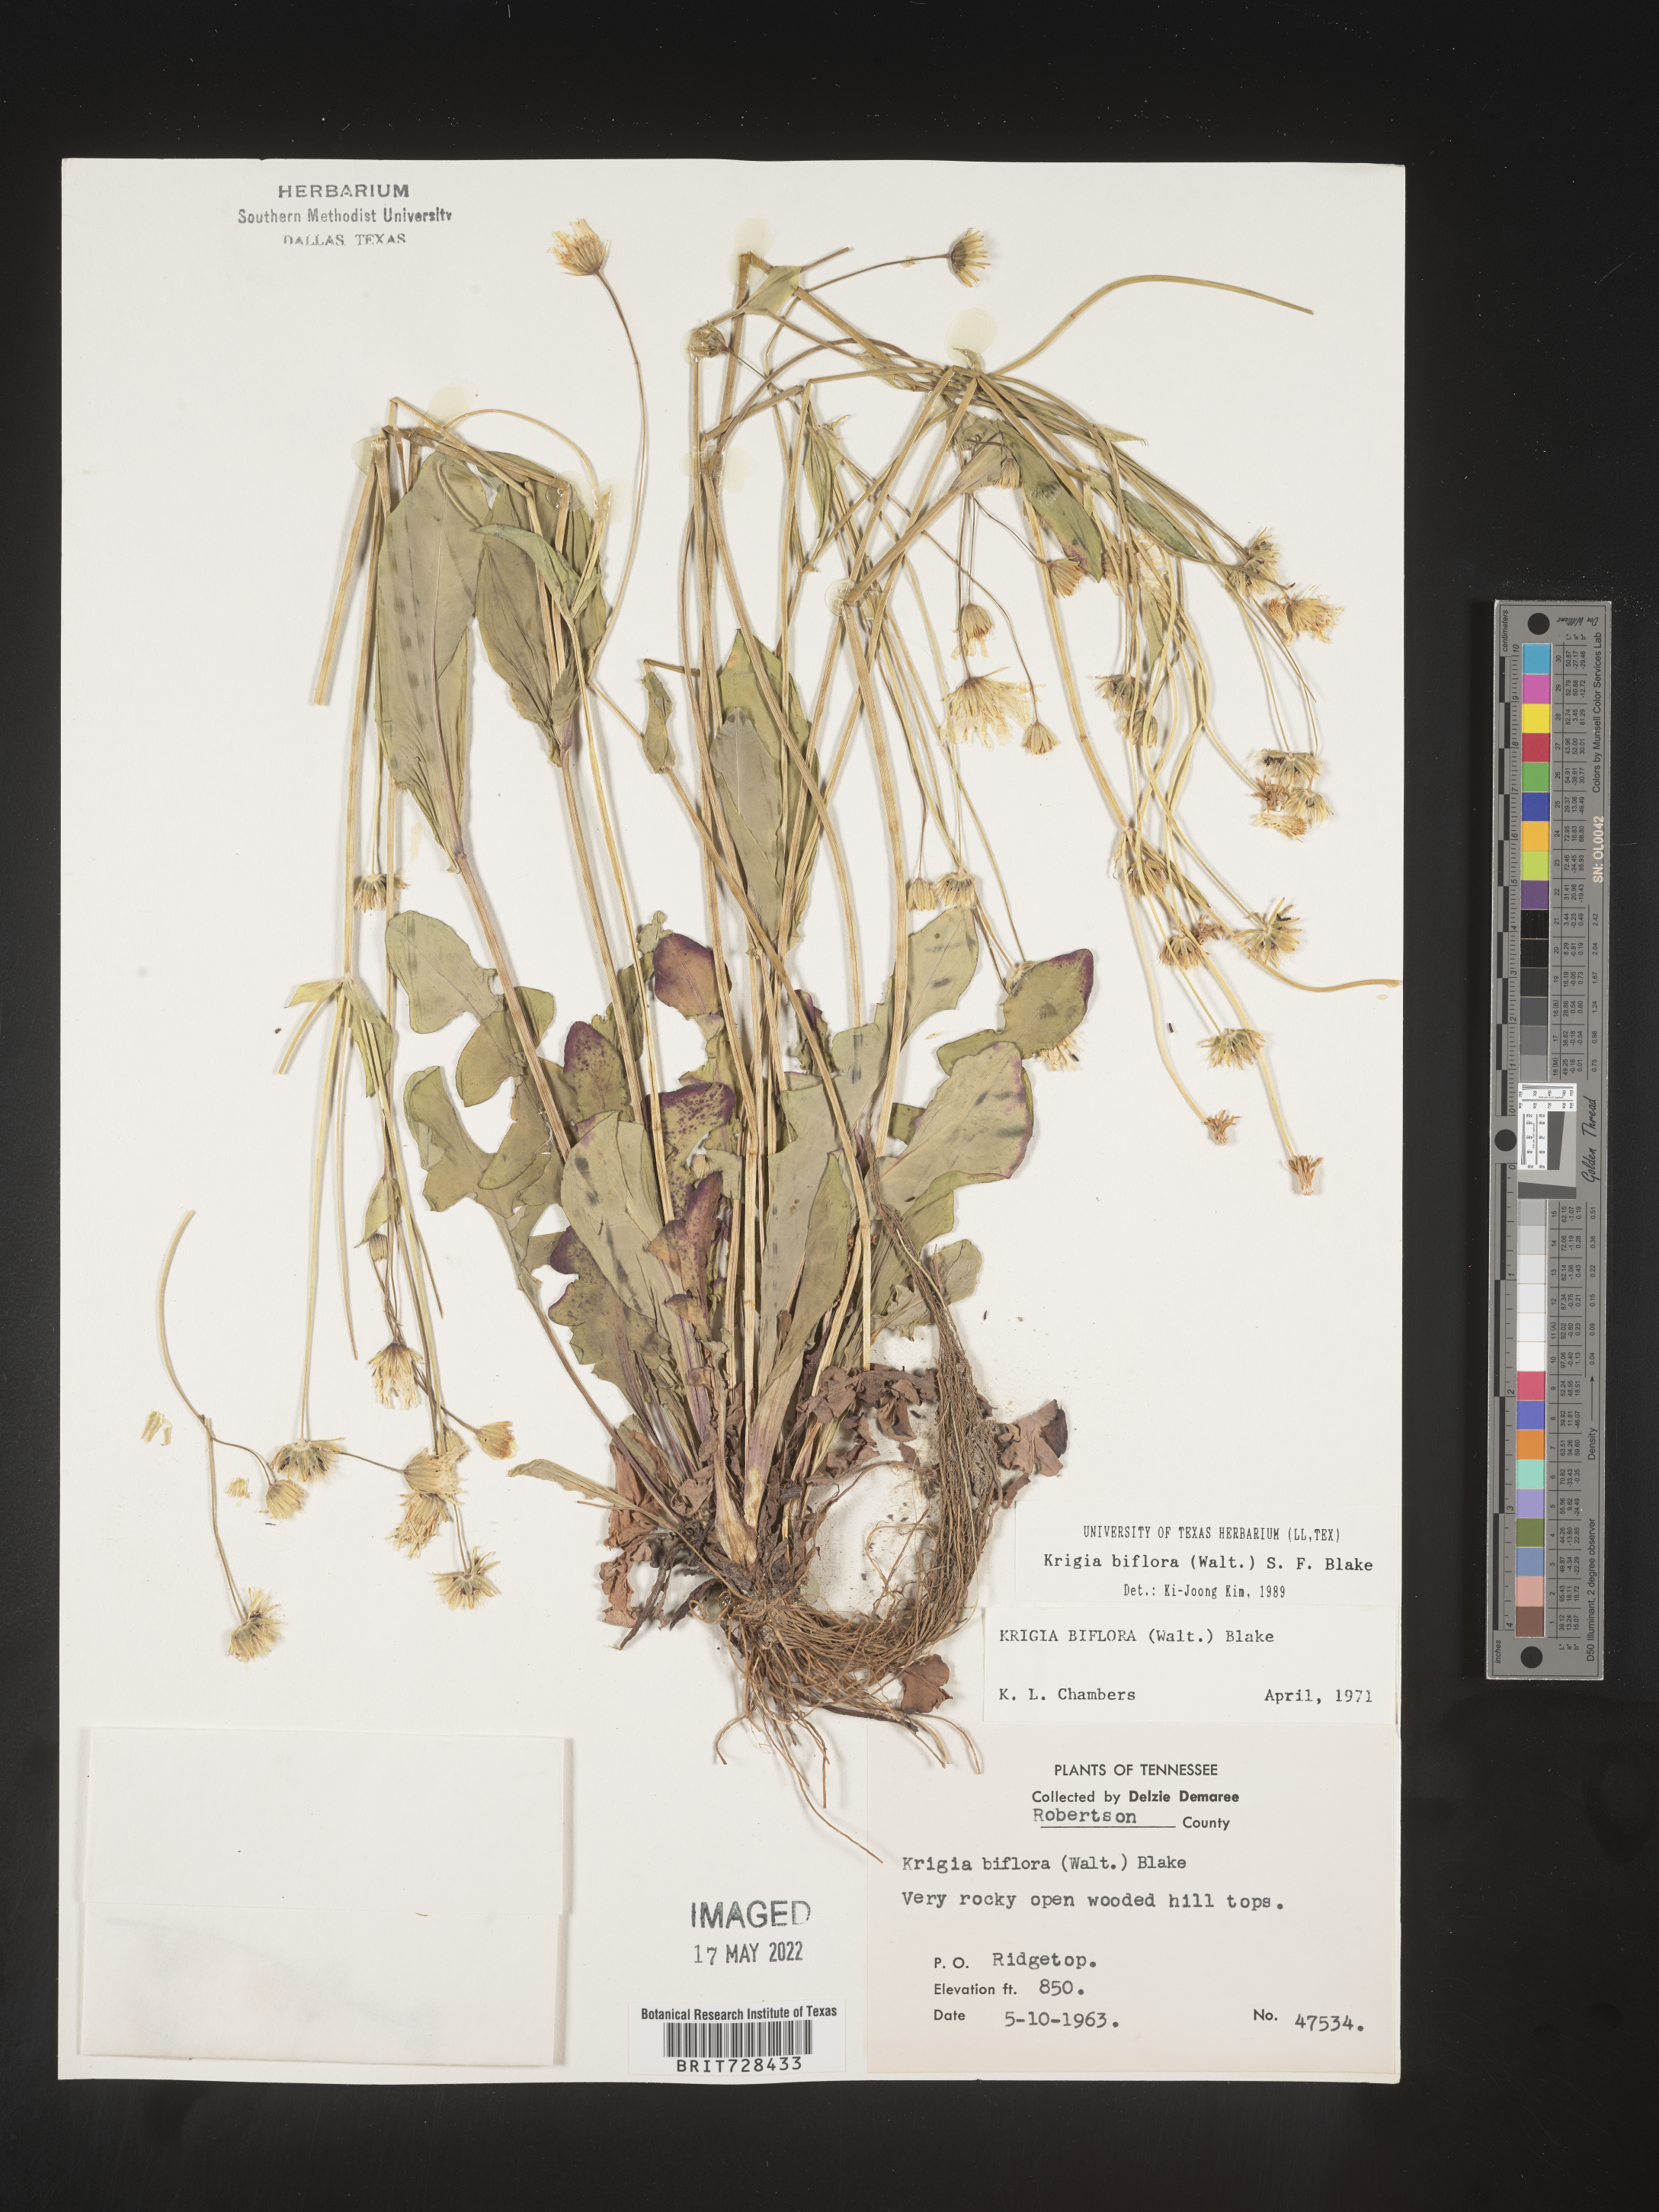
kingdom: Plantae
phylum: Tracheophyta
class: Magnoliopsida
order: Asterales
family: Asteraceae
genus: Krigia
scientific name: Krigia biflora
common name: Orange dwarf-dandelion
